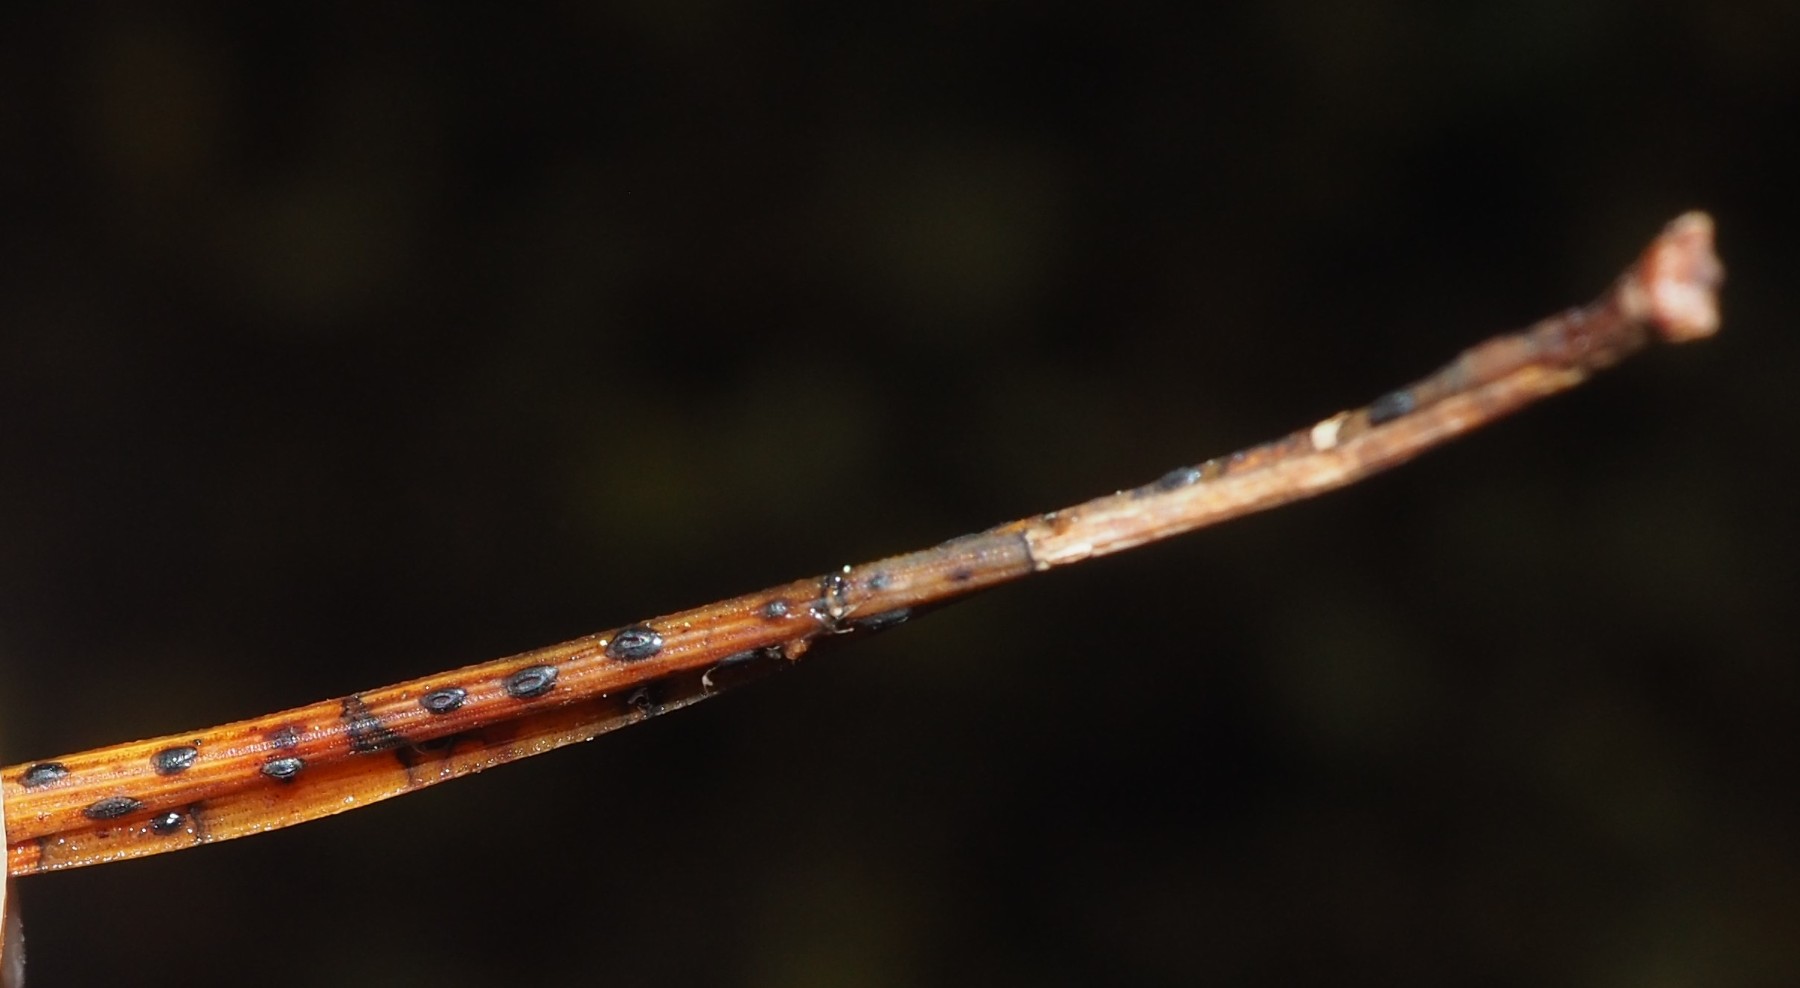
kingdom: Fungi
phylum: Ascomycota
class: Leotiomycetes
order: Rhytismatales
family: Rhytismataceae
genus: Lophodermium
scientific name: Lophodermium pinastri
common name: fyrre-fureplet
